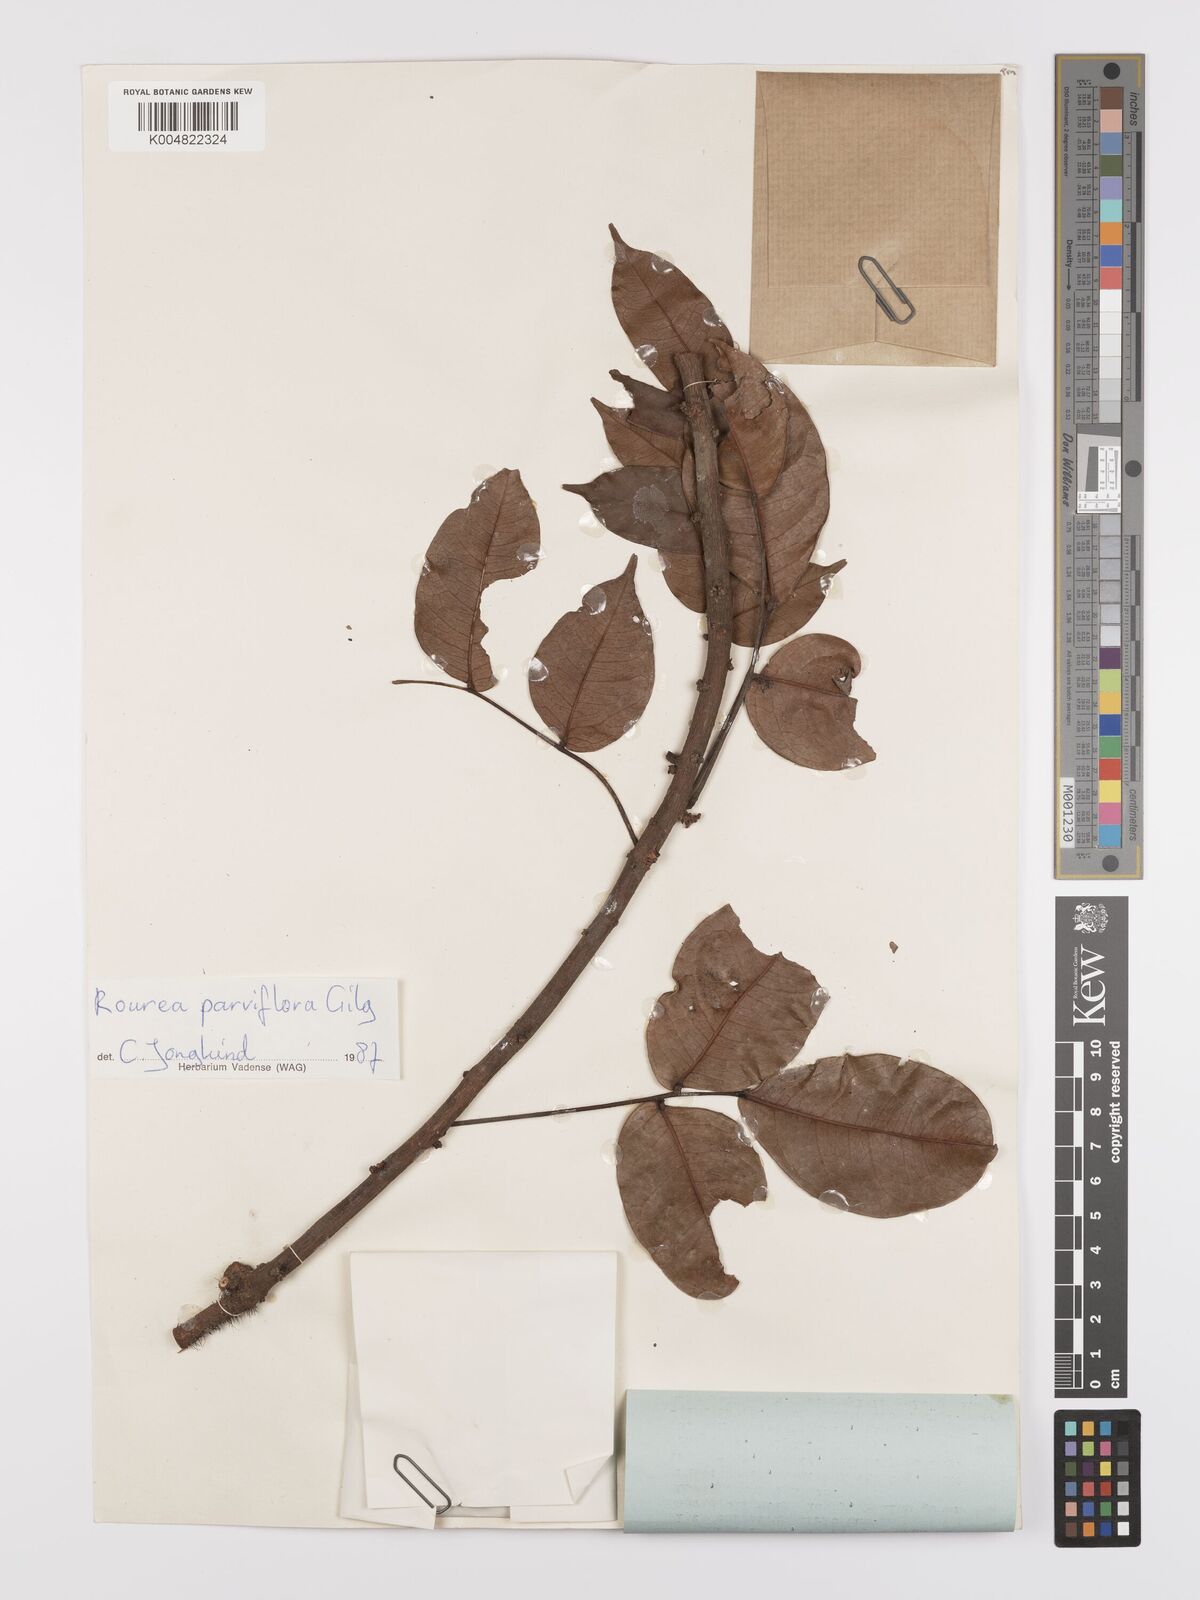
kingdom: Plantae
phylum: Tracheophyta
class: Magnoliopsida
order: Oxalidales
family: Connaraceae
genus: Rourea
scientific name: Rourea
